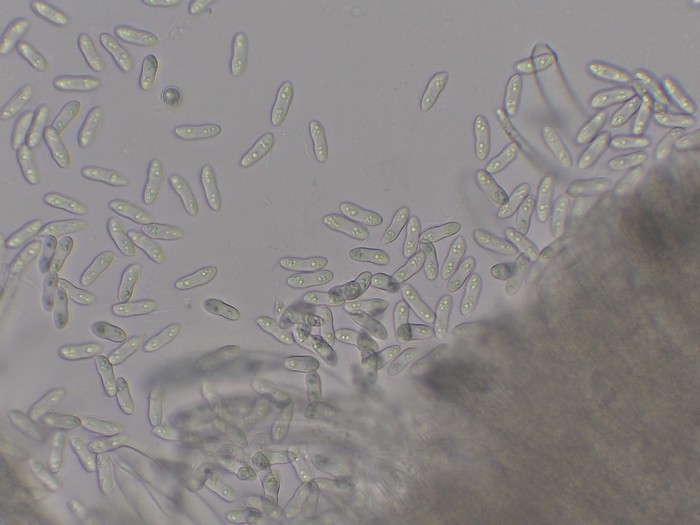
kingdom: Fungi
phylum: Ascomycota
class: Leotiomycetes
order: Helotiales
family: Helotiaceae
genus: Hymenoscyphus
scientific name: Hymenoscyphus caudatus
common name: blad-stilkskive
